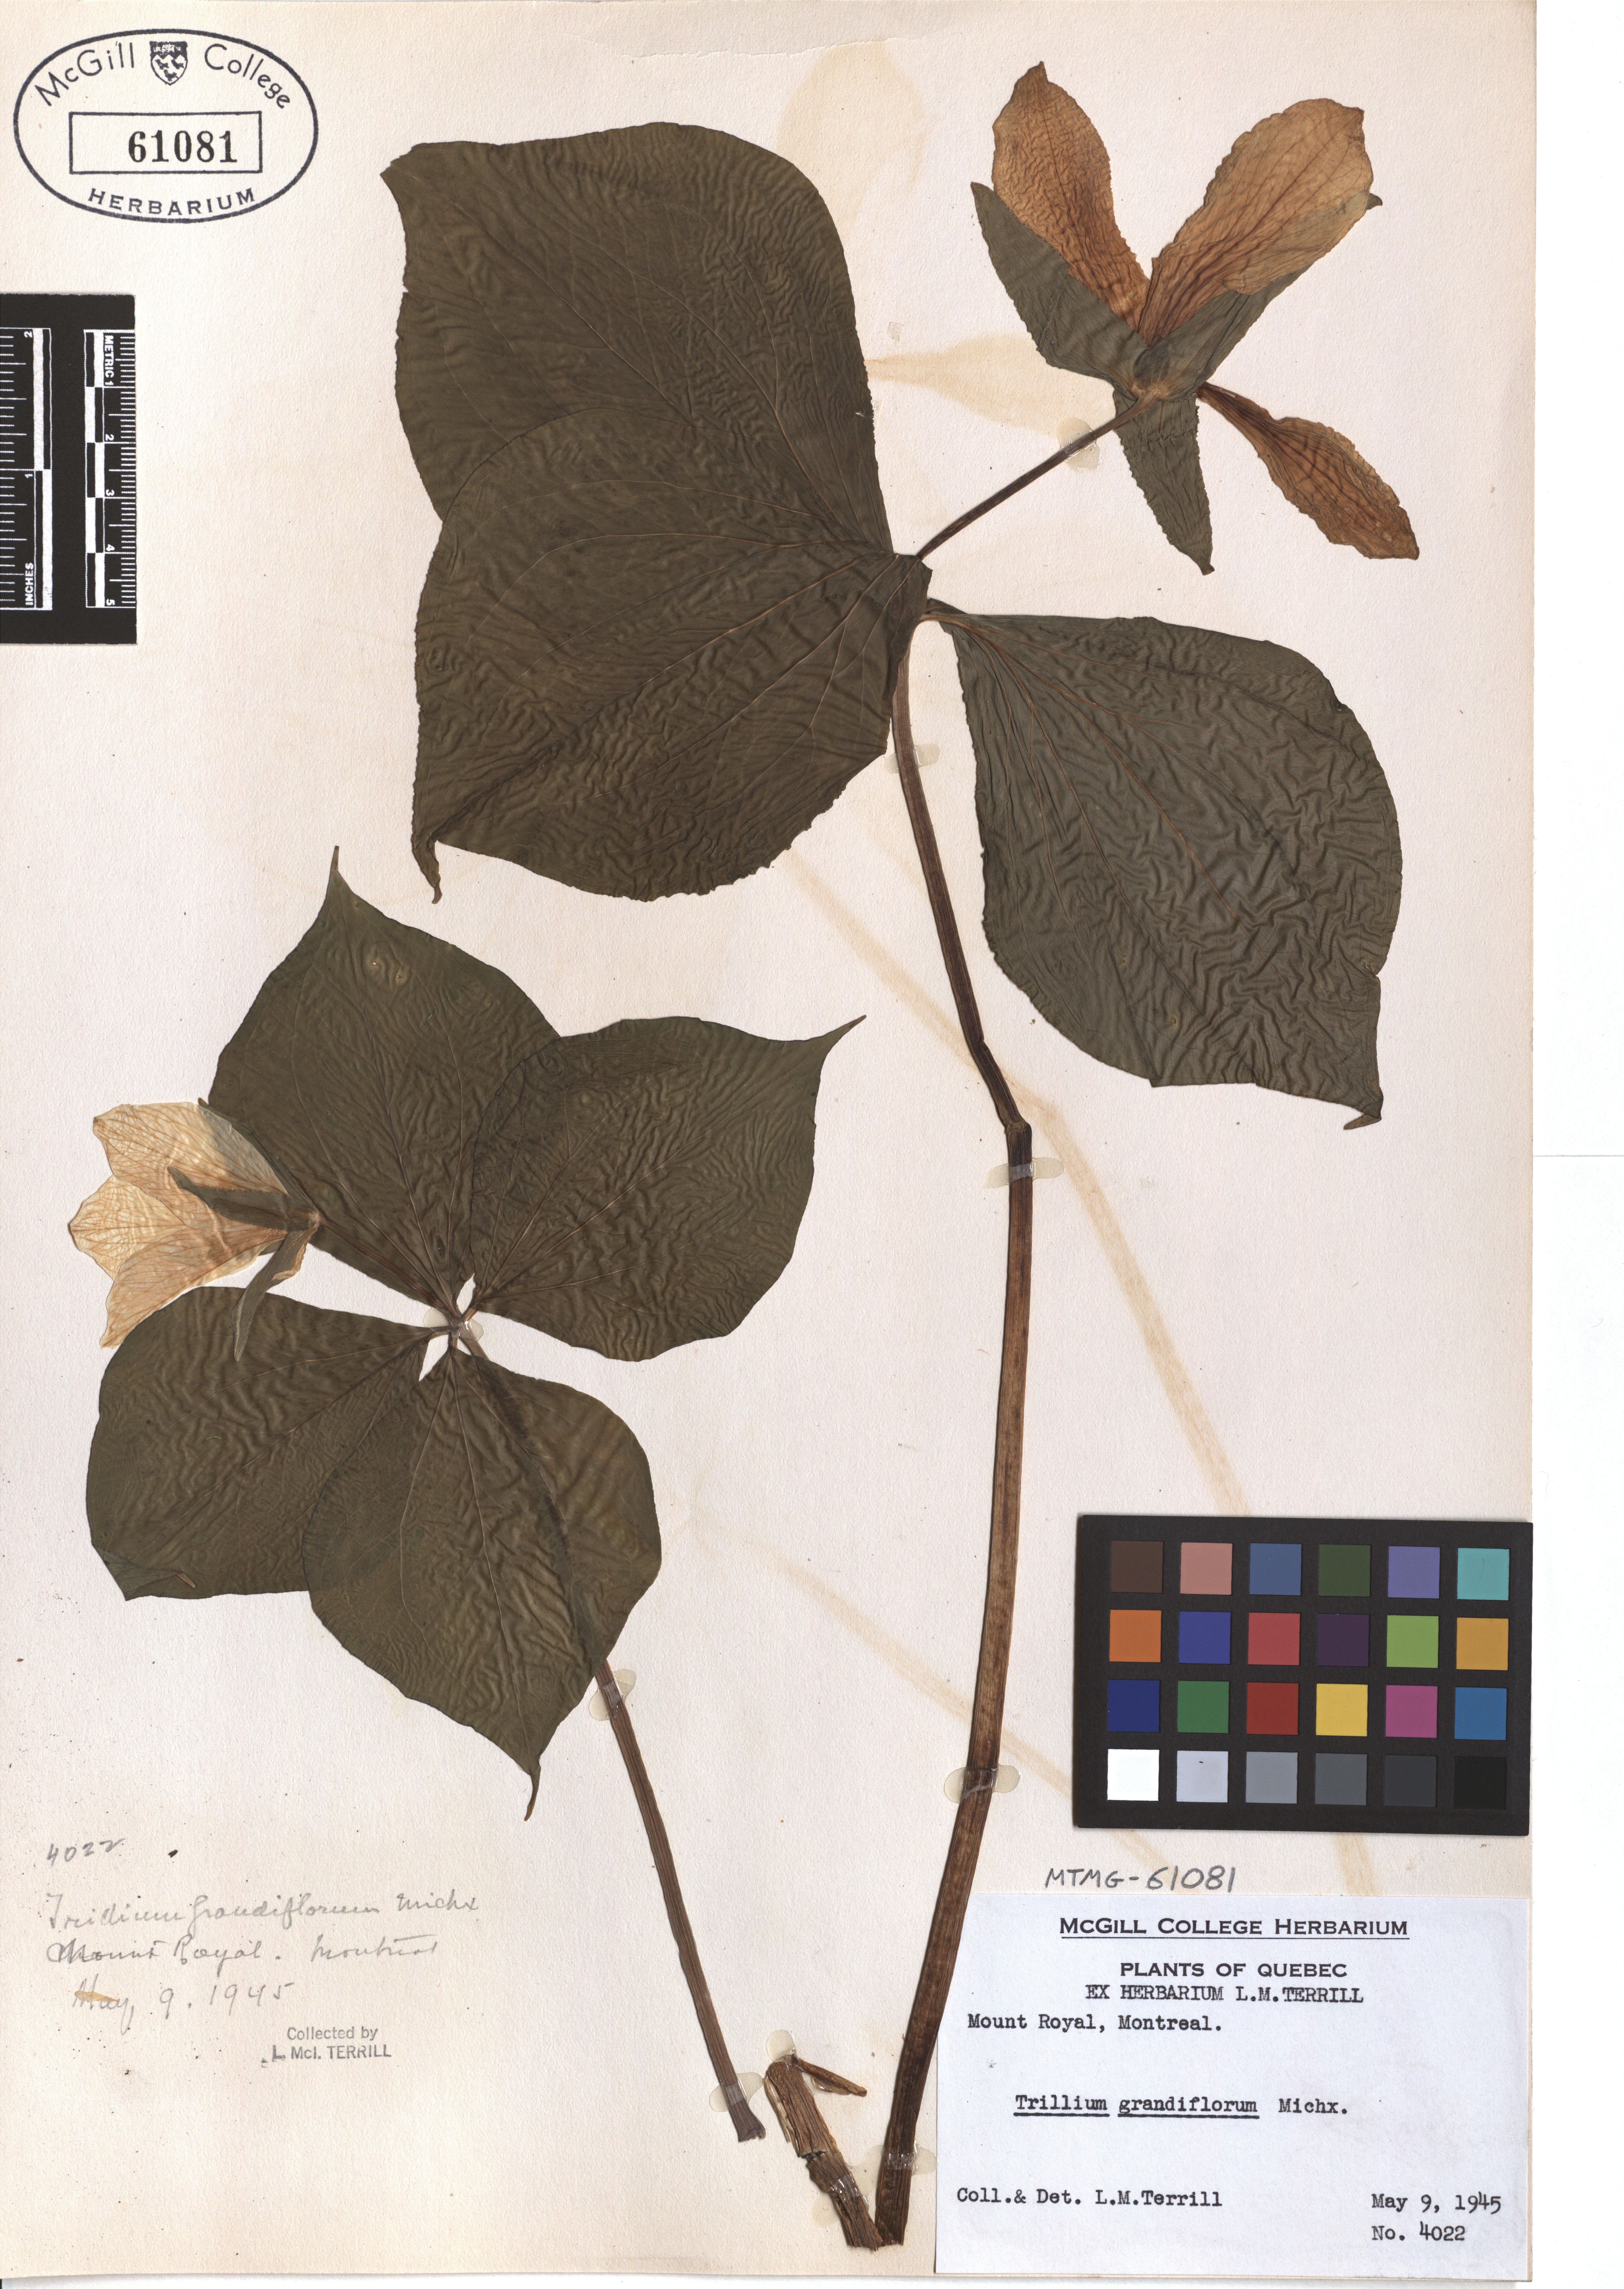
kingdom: Plantae
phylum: Tracheophyta
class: Liliopsida
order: Liliales
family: Melanthiaceae
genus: Trillium
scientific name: Trillium grandiflorum
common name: Great white trillium
